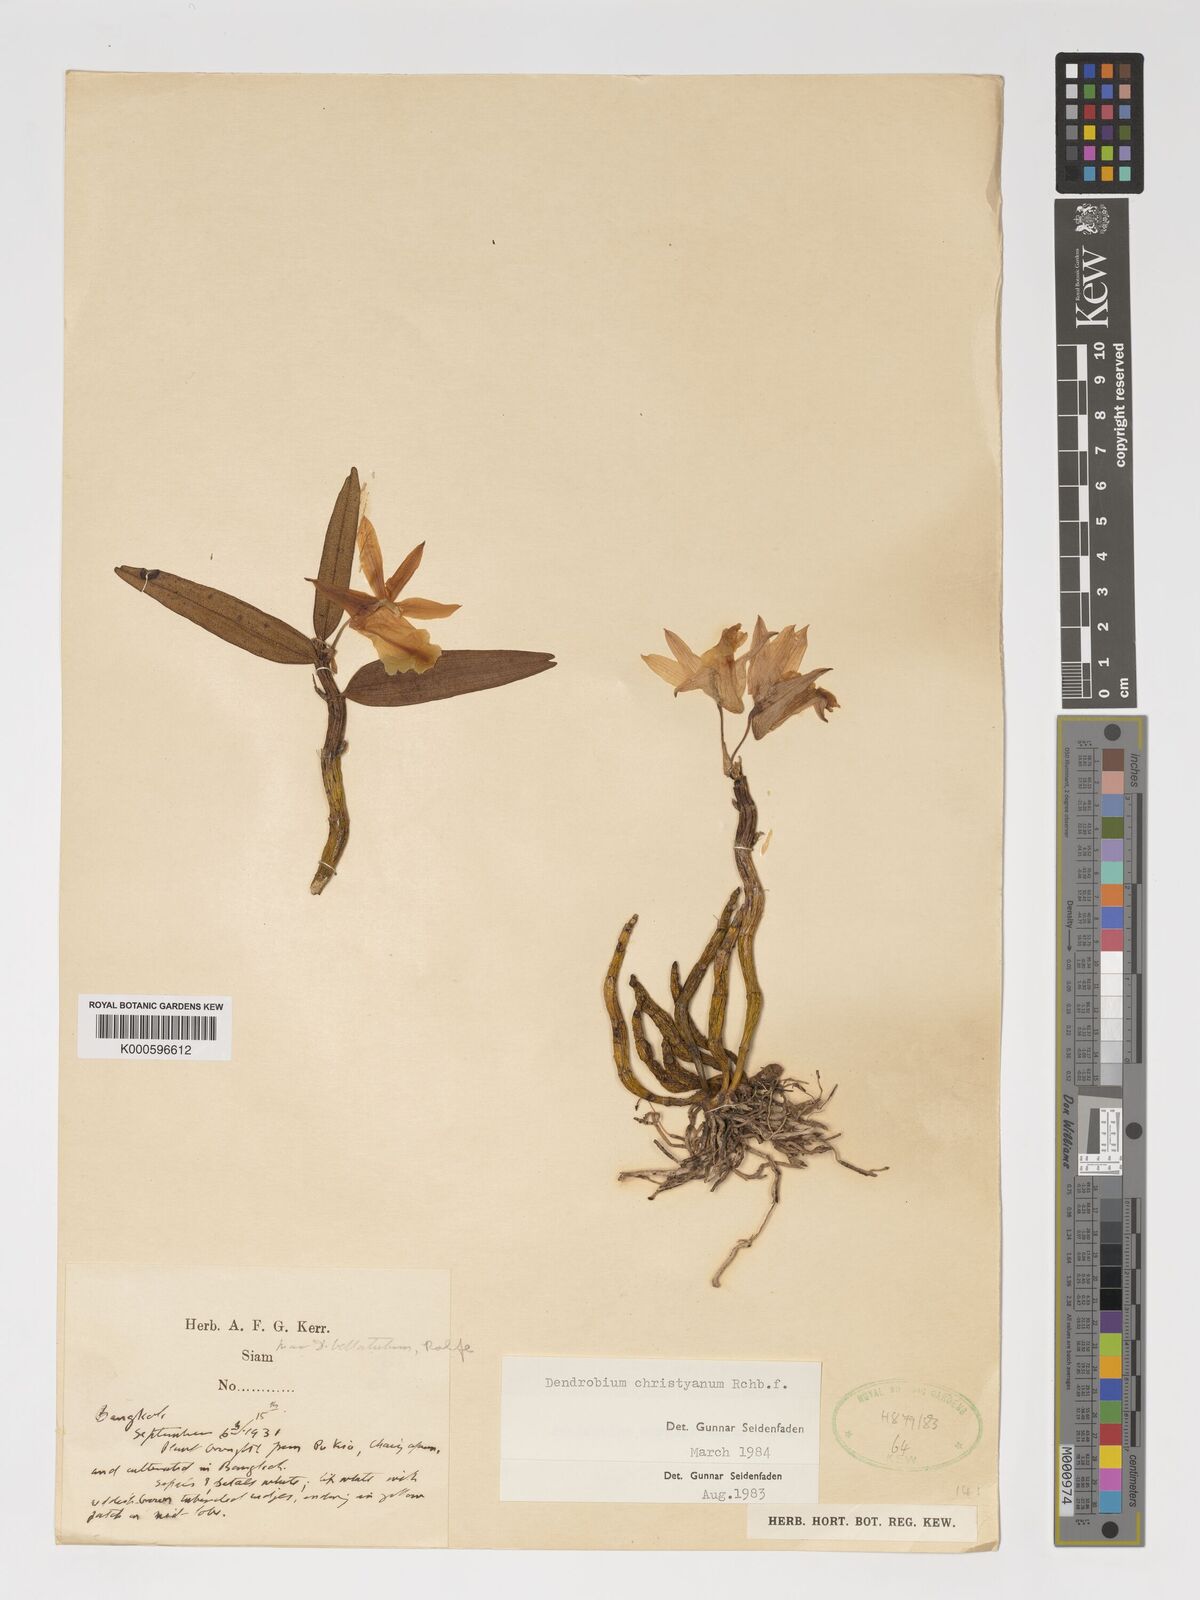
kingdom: Plantae
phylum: Tracheophyta
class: Liliopsida
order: Asparagales
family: Orchidaceae
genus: Dendrobium
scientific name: Dendrobium christyanum
